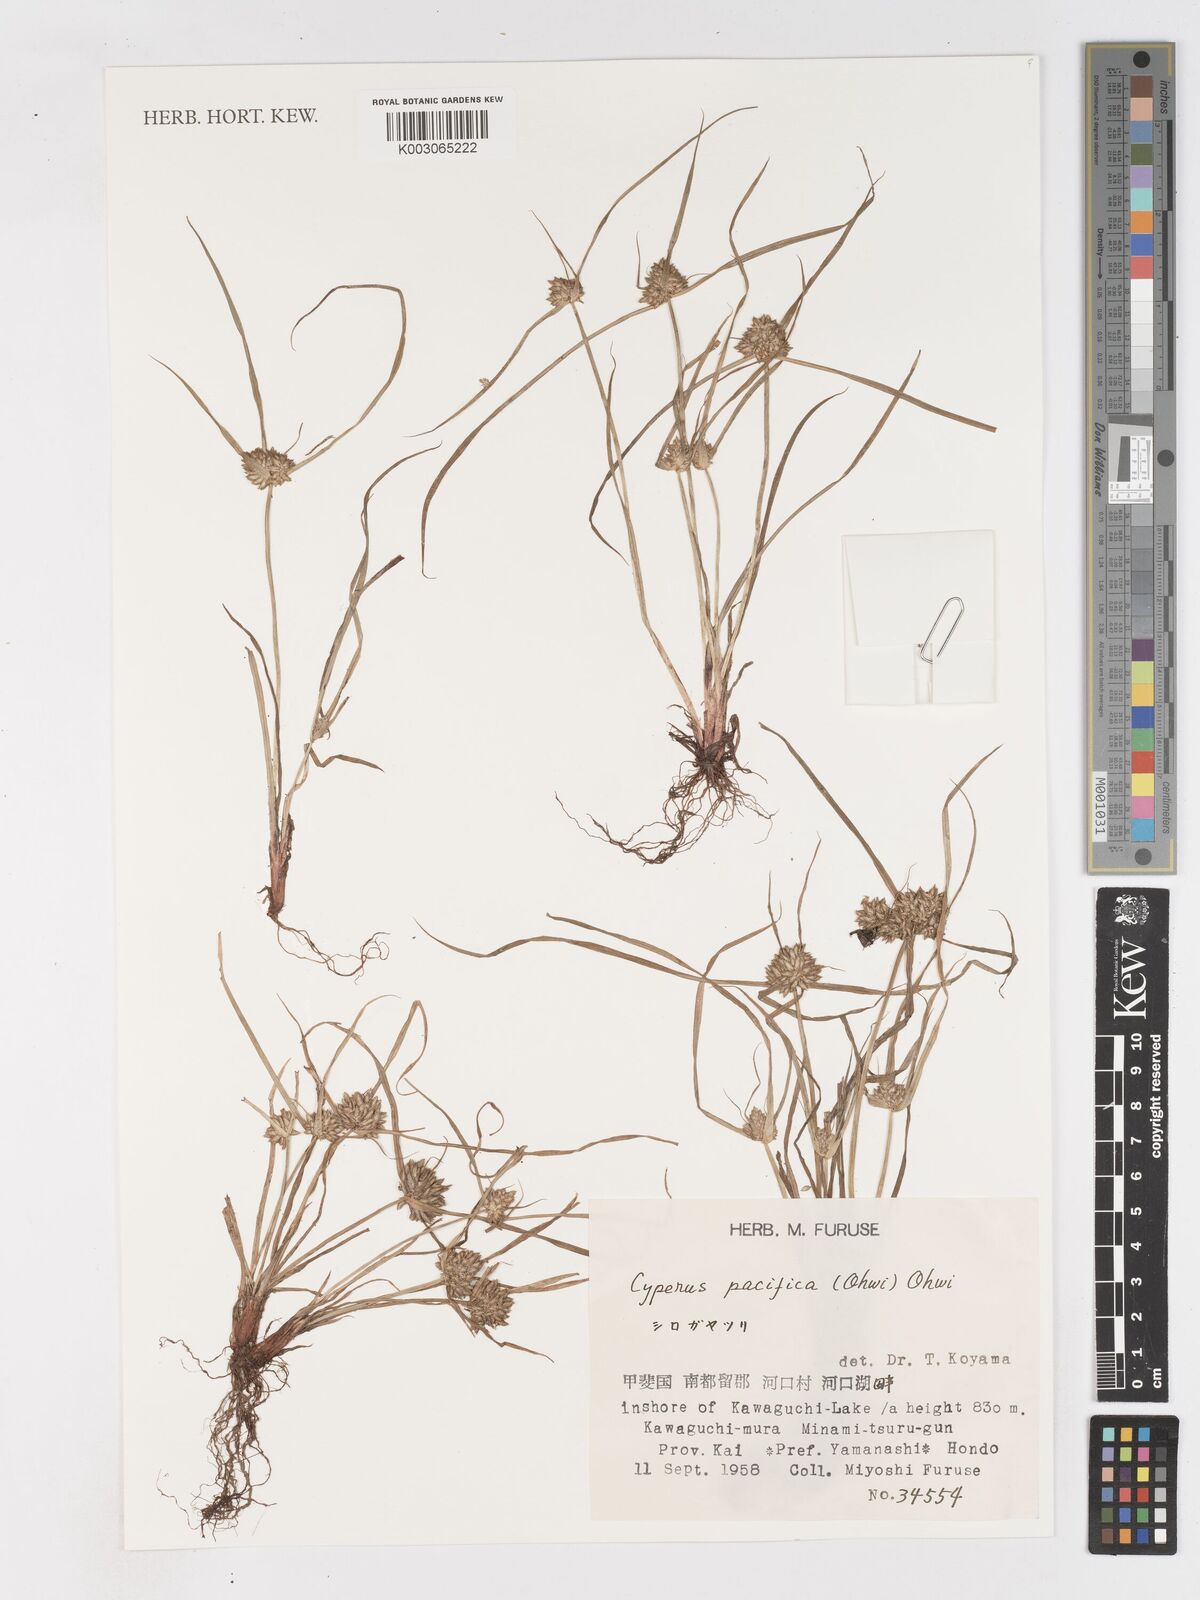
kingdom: Plantae
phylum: Tracheophyta
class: Liliopsida
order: Poales
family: Cyperaceae
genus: Cyperus
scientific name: Cyperus pacificus
